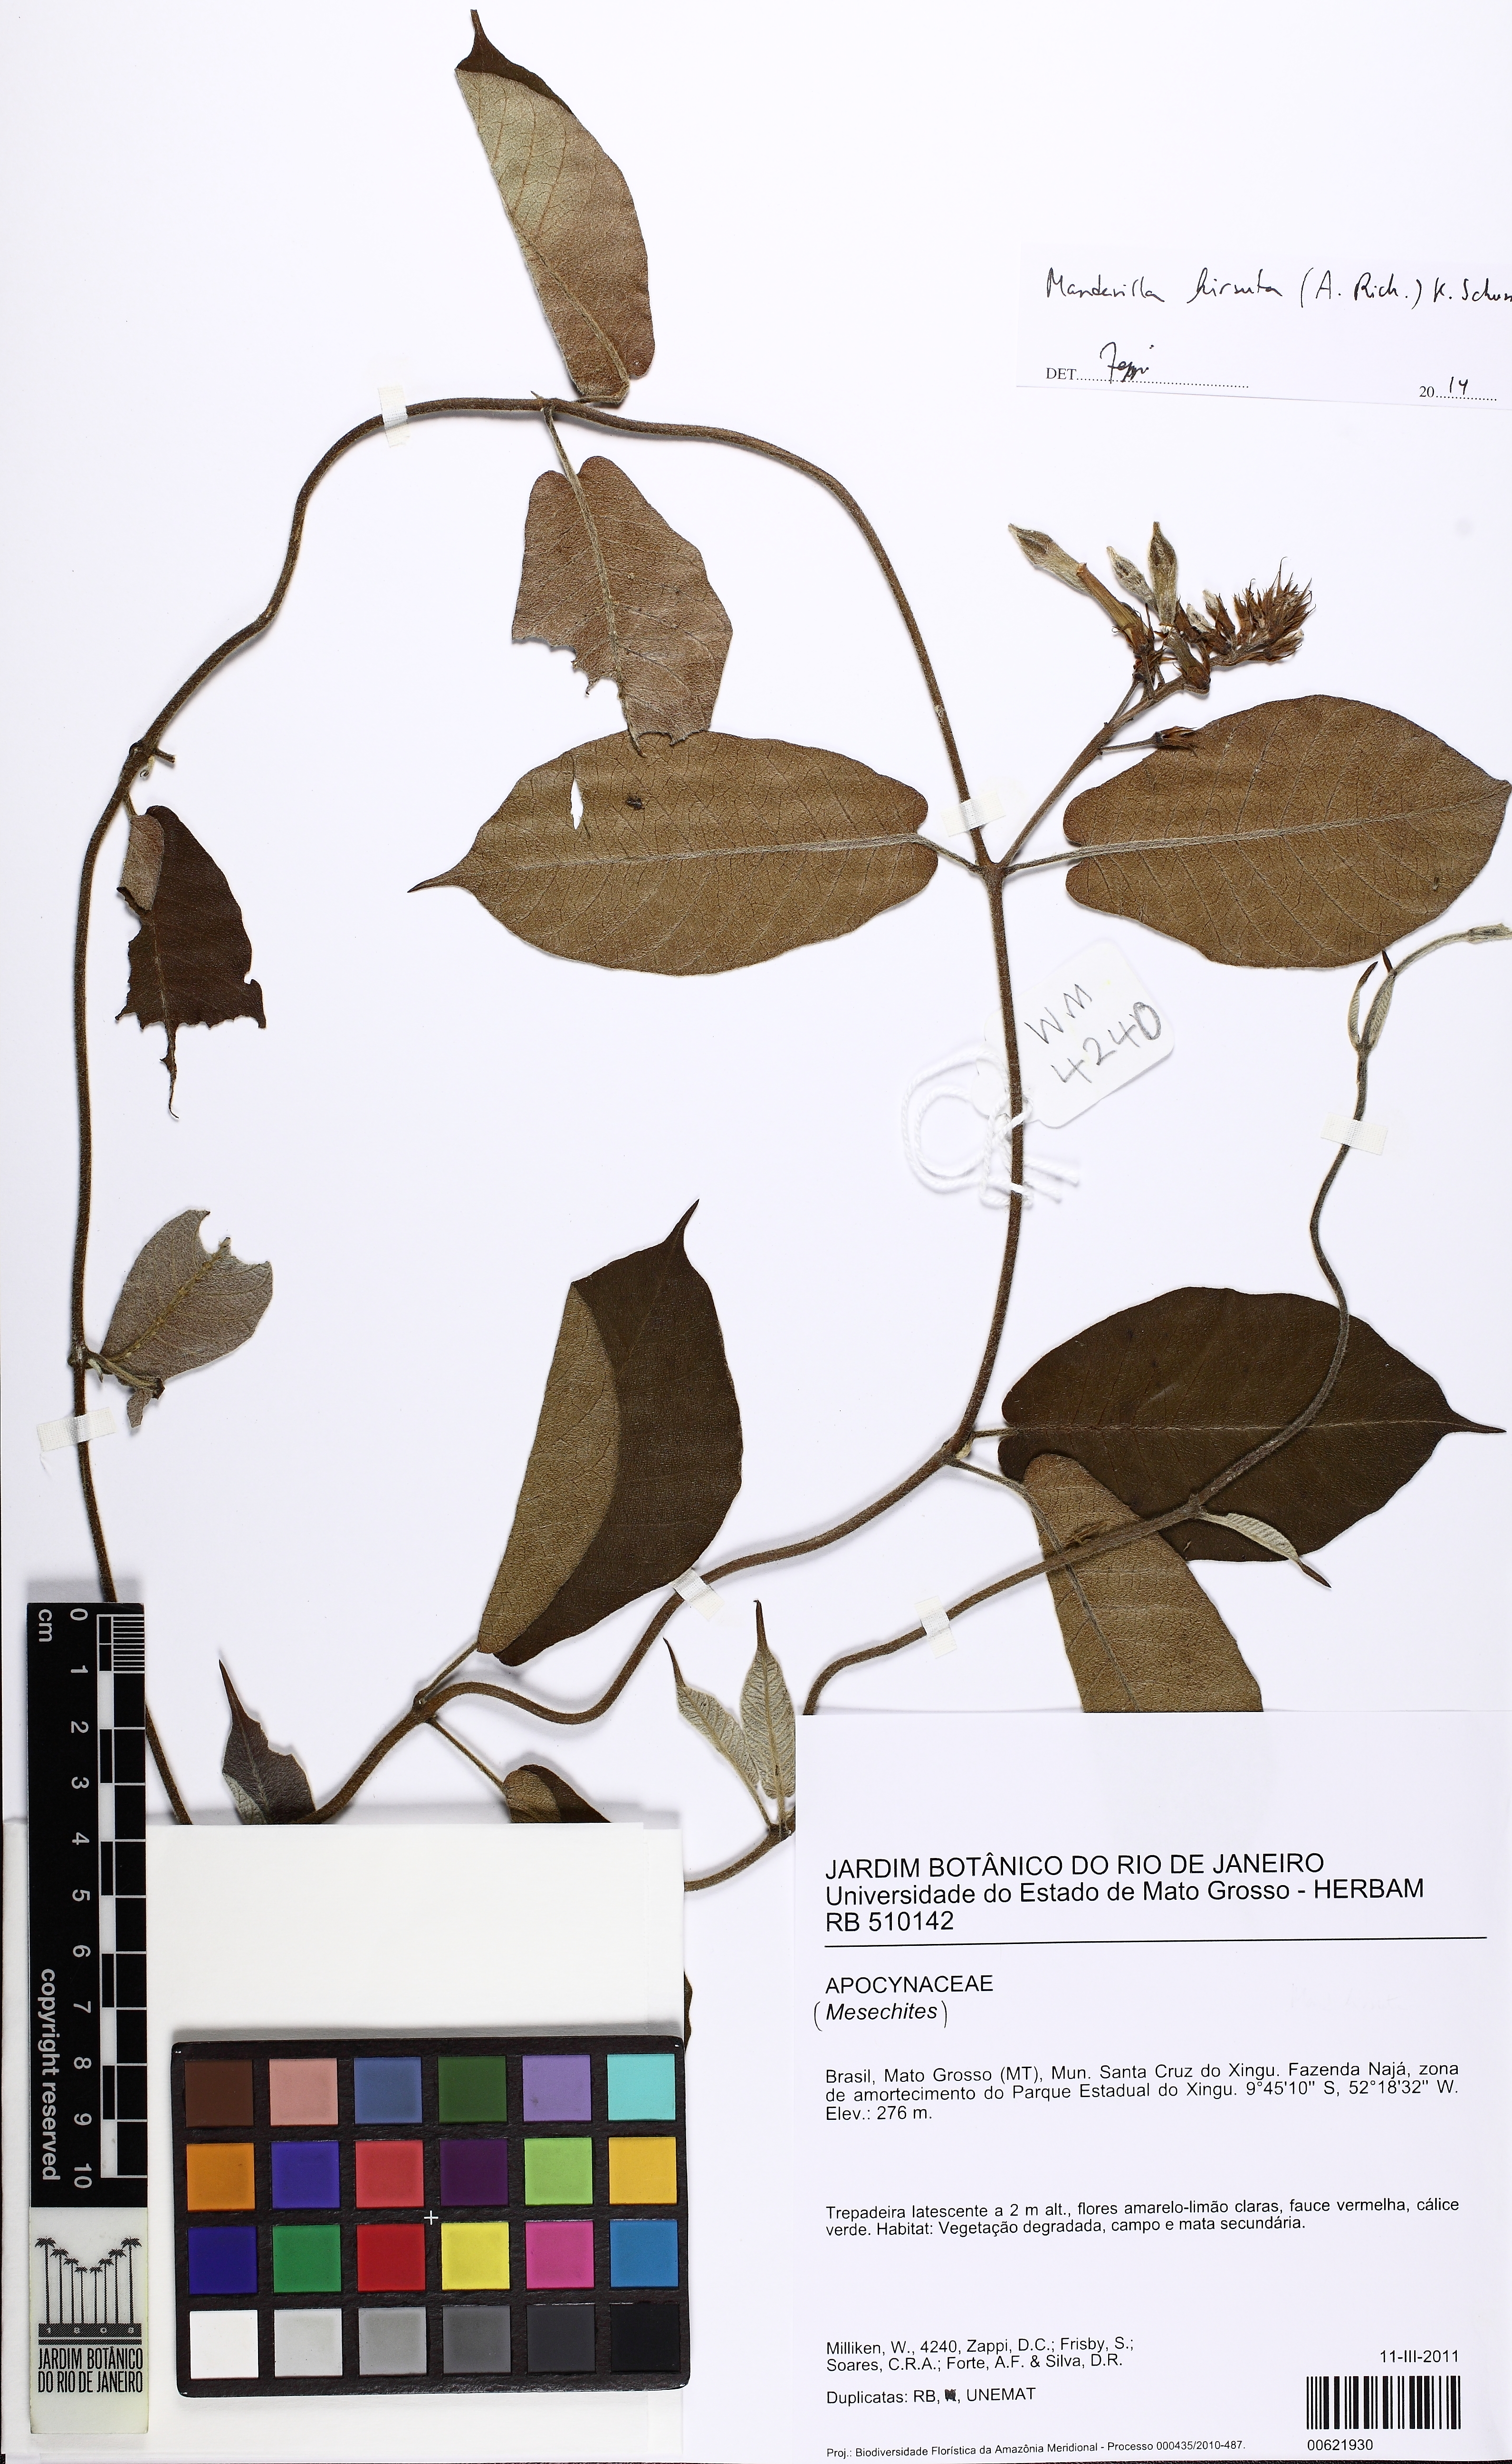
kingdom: Plantae
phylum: Tracheophyta
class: Magnoliopsida
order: Gentianales
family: Apocynaceae
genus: Mandevilla
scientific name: Mandevilla hirsuta
